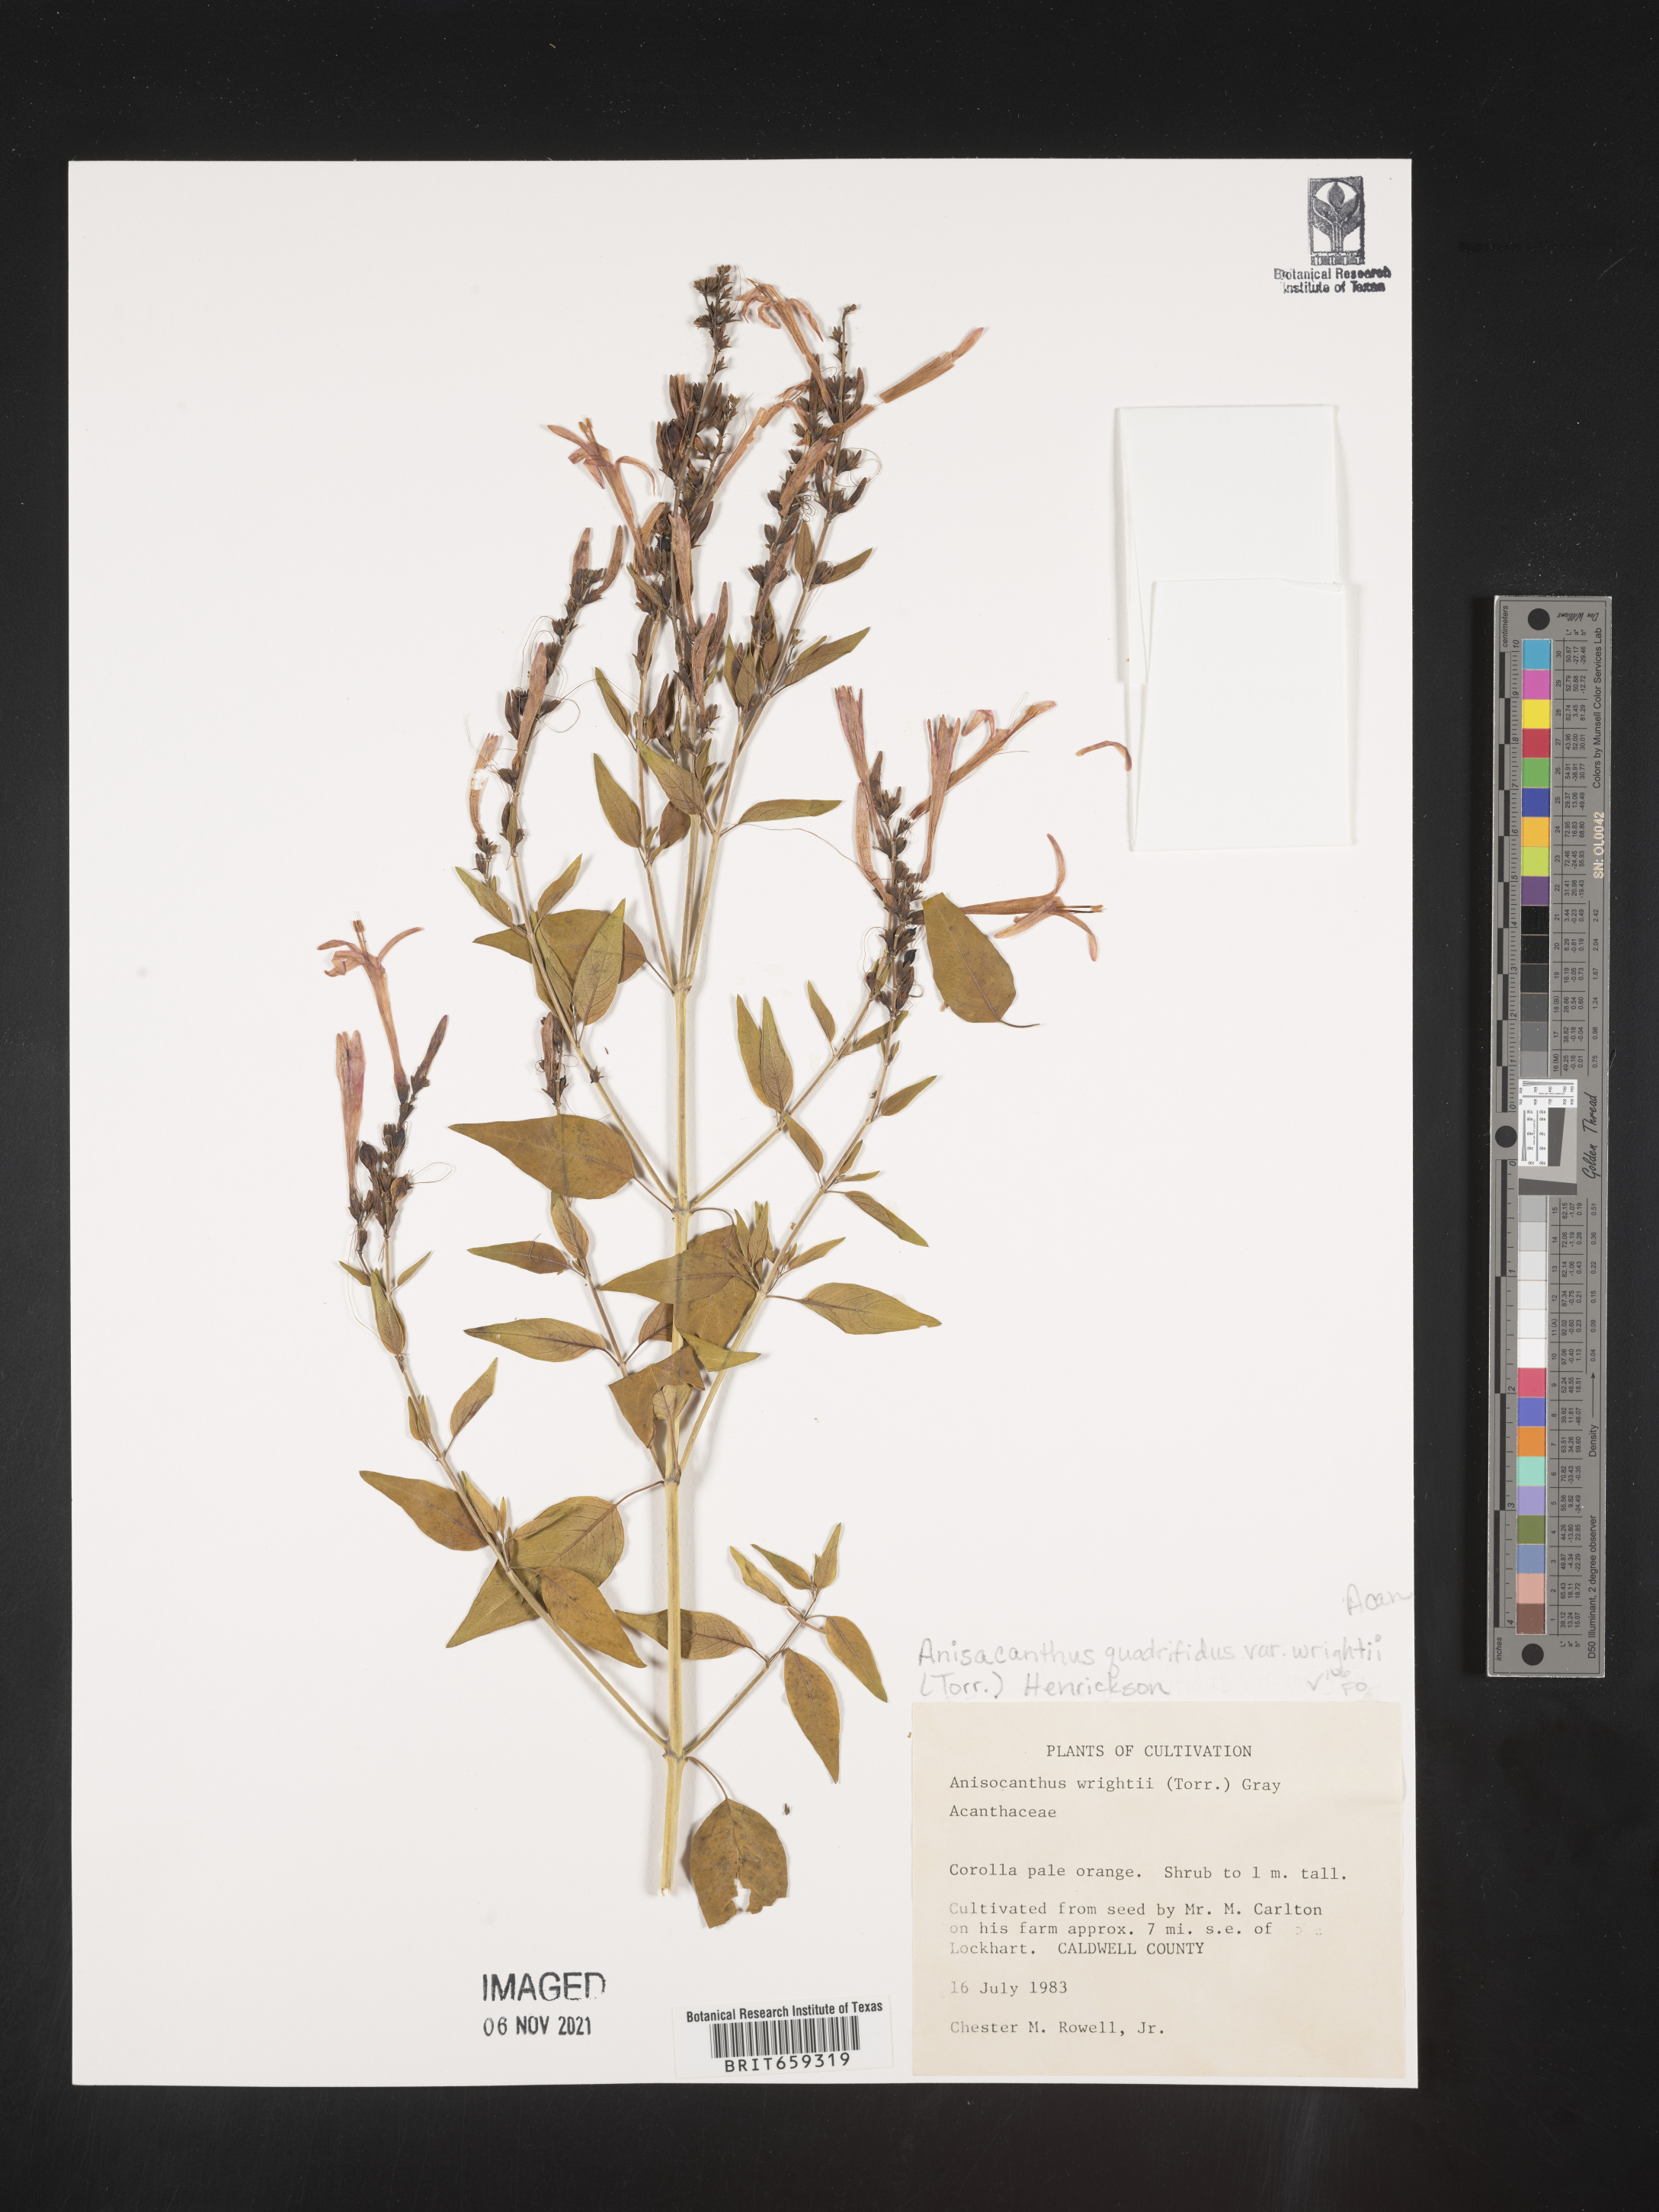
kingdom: Plantae
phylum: Tracheophyta
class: Magnoliopsida
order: Lamiales
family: Acanthaceae
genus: Anisacanthus
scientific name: Anisacanthus
